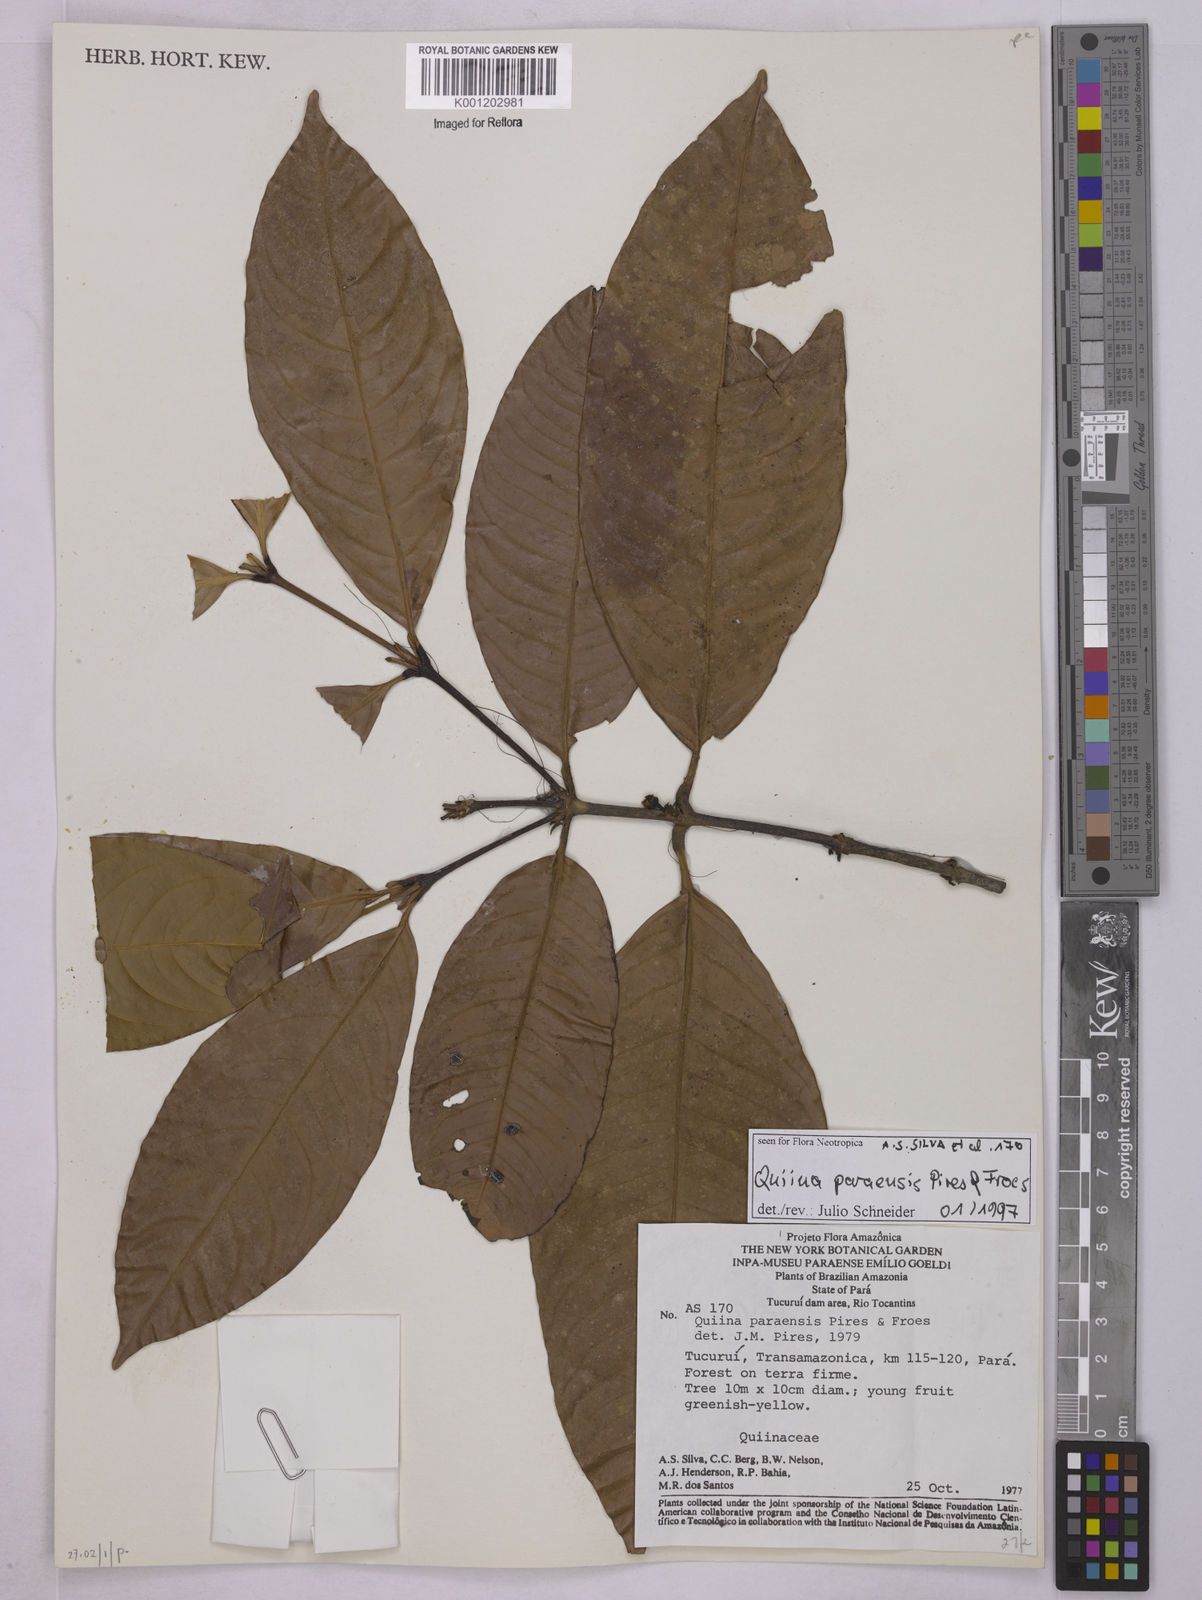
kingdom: Plantae
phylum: Tracheophyta
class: Magnoliopsida
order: Malpighiales
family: Quiinaceae
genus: Quiina
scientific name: Quiina paraensis
